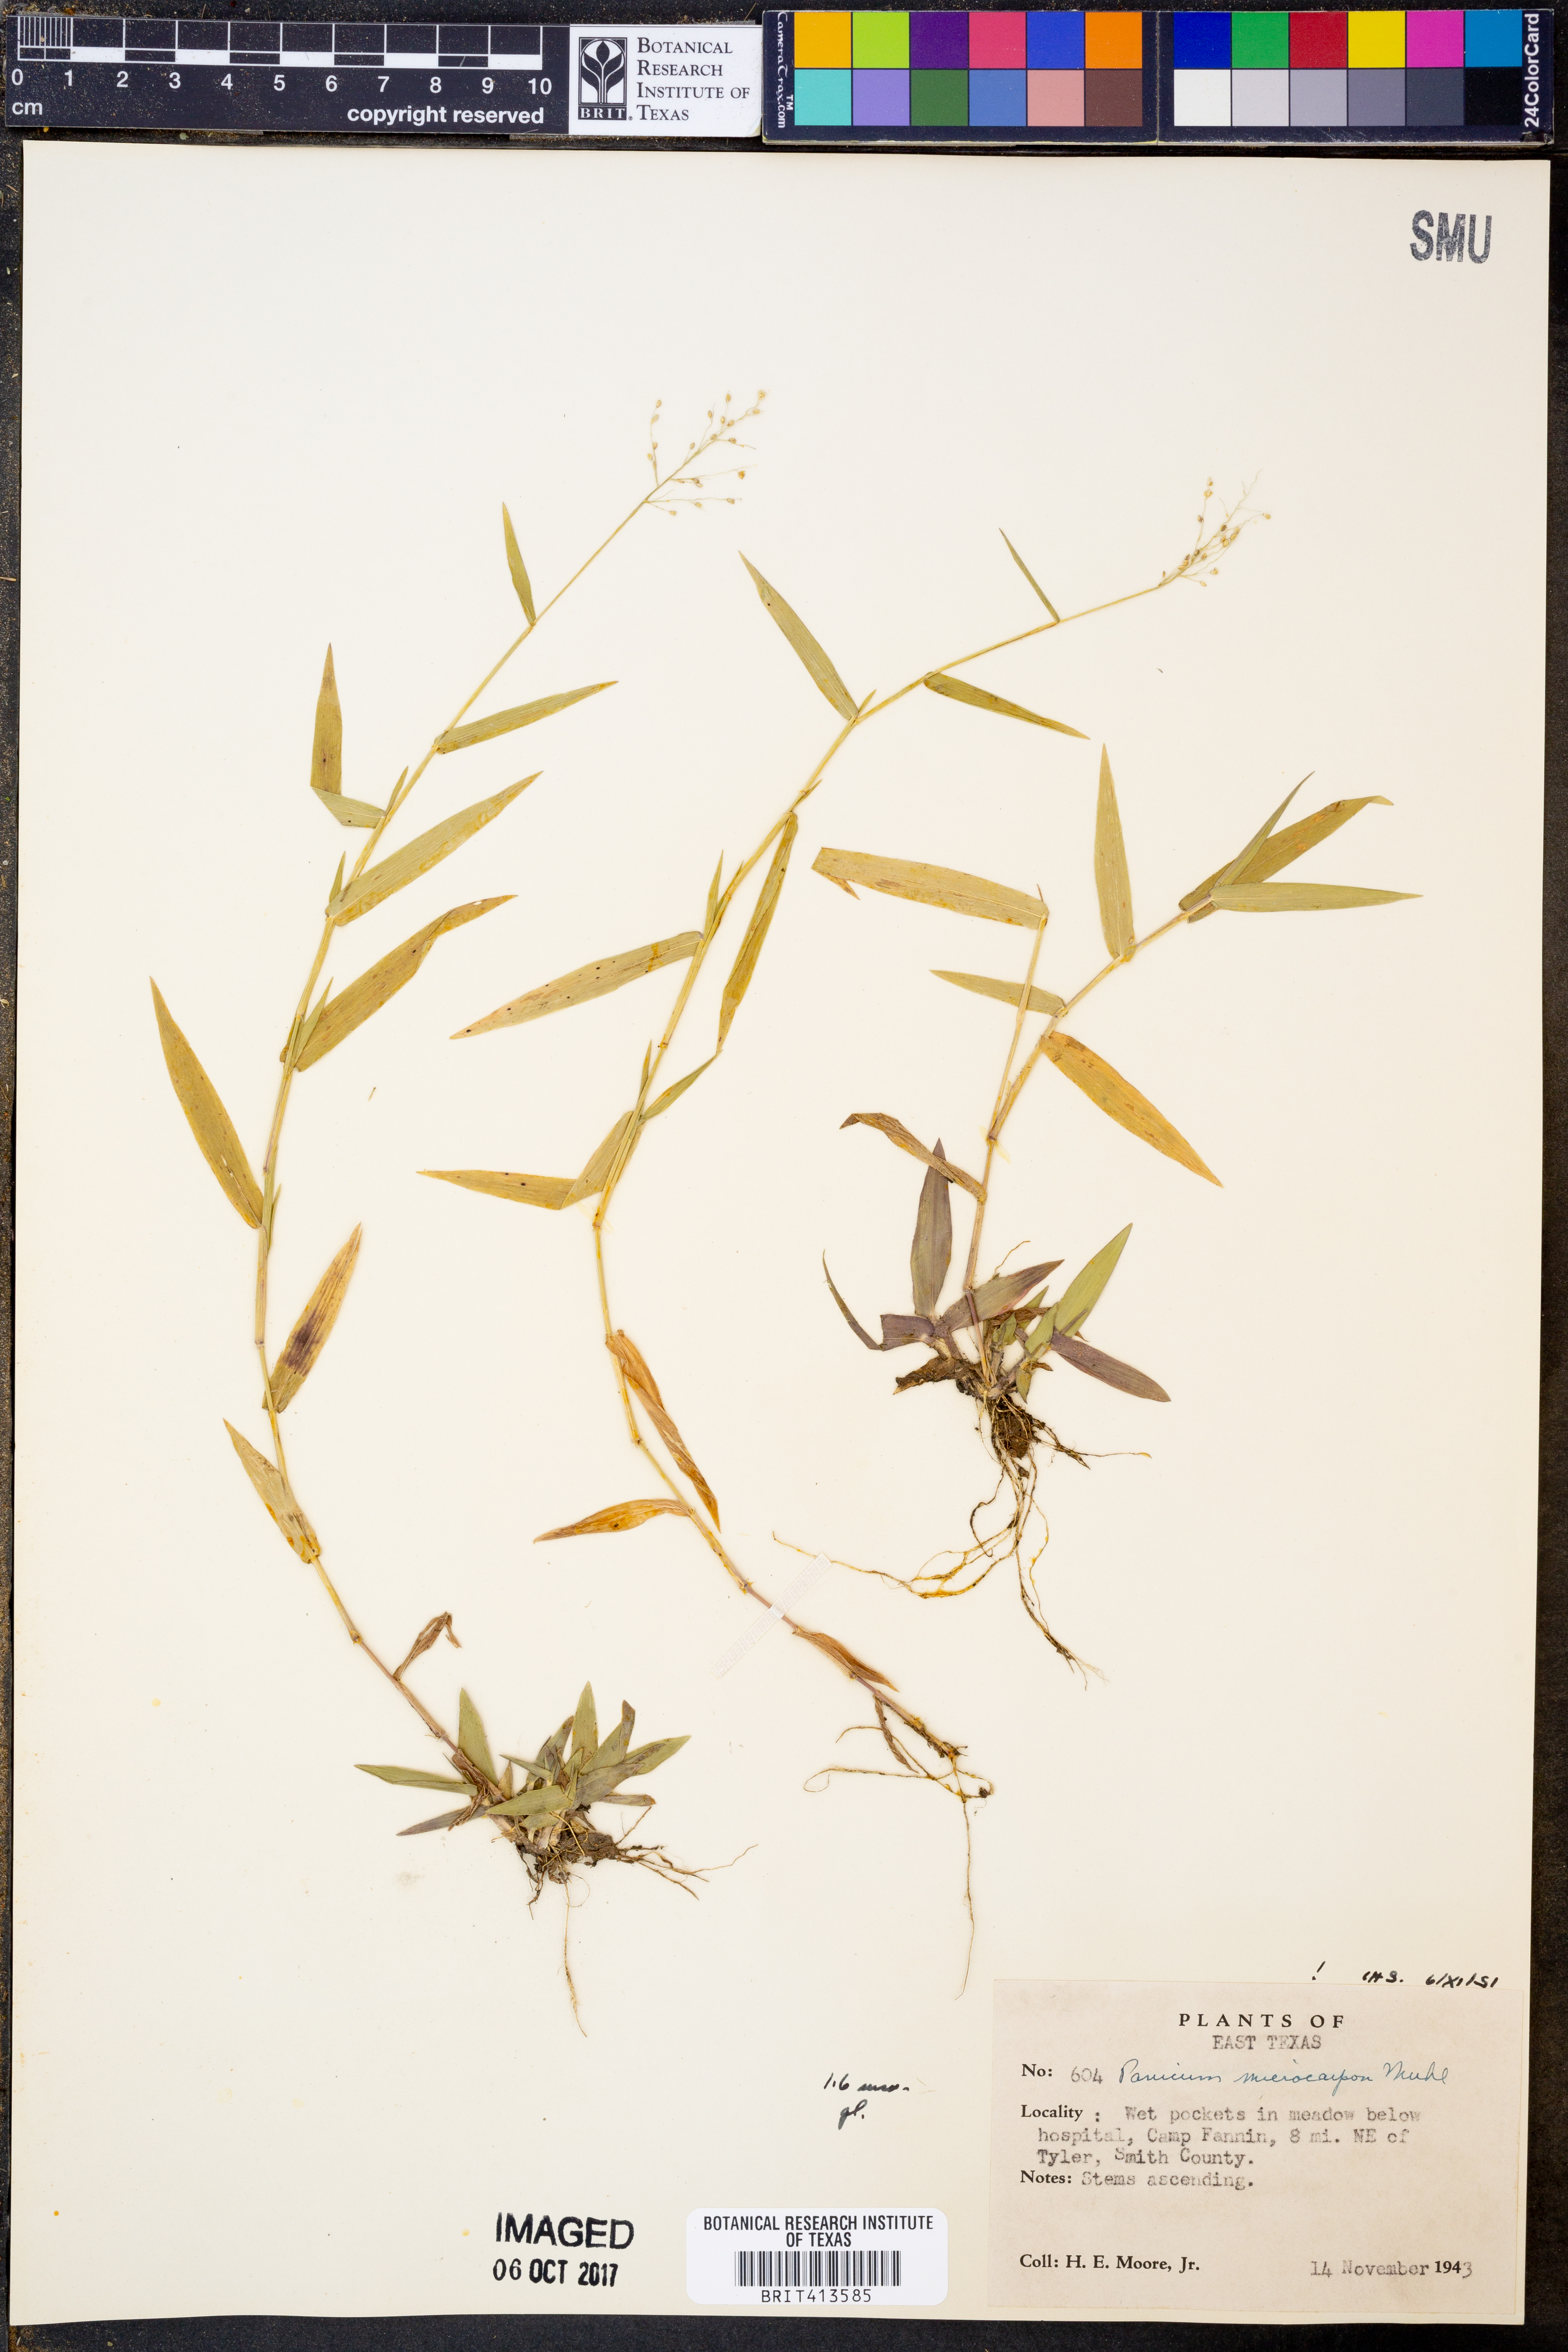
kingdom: Plantae
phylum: Tracheophyta
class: Liliopsida
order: Poales
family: Poaceae
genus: Dichanthelium
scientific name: Dichanthelium polyanthes
